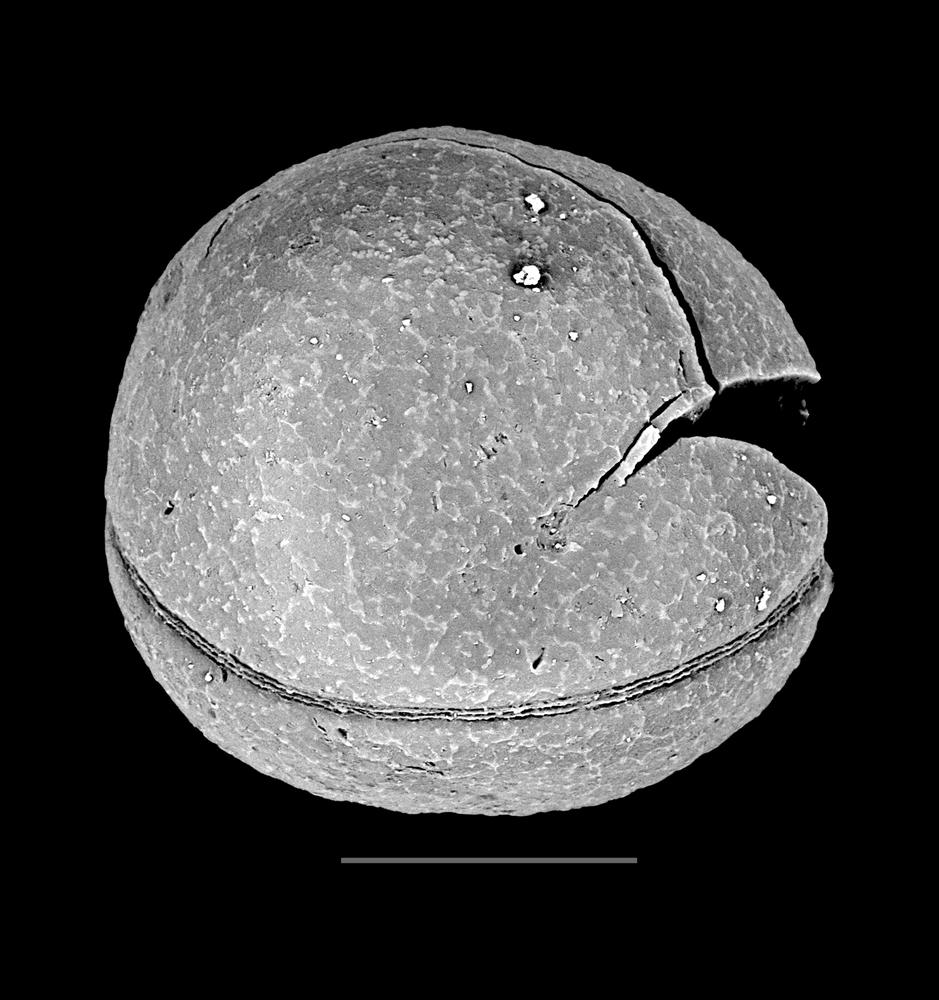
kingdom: Animalia
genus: Vikisphaera
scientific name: Vikisphaera
